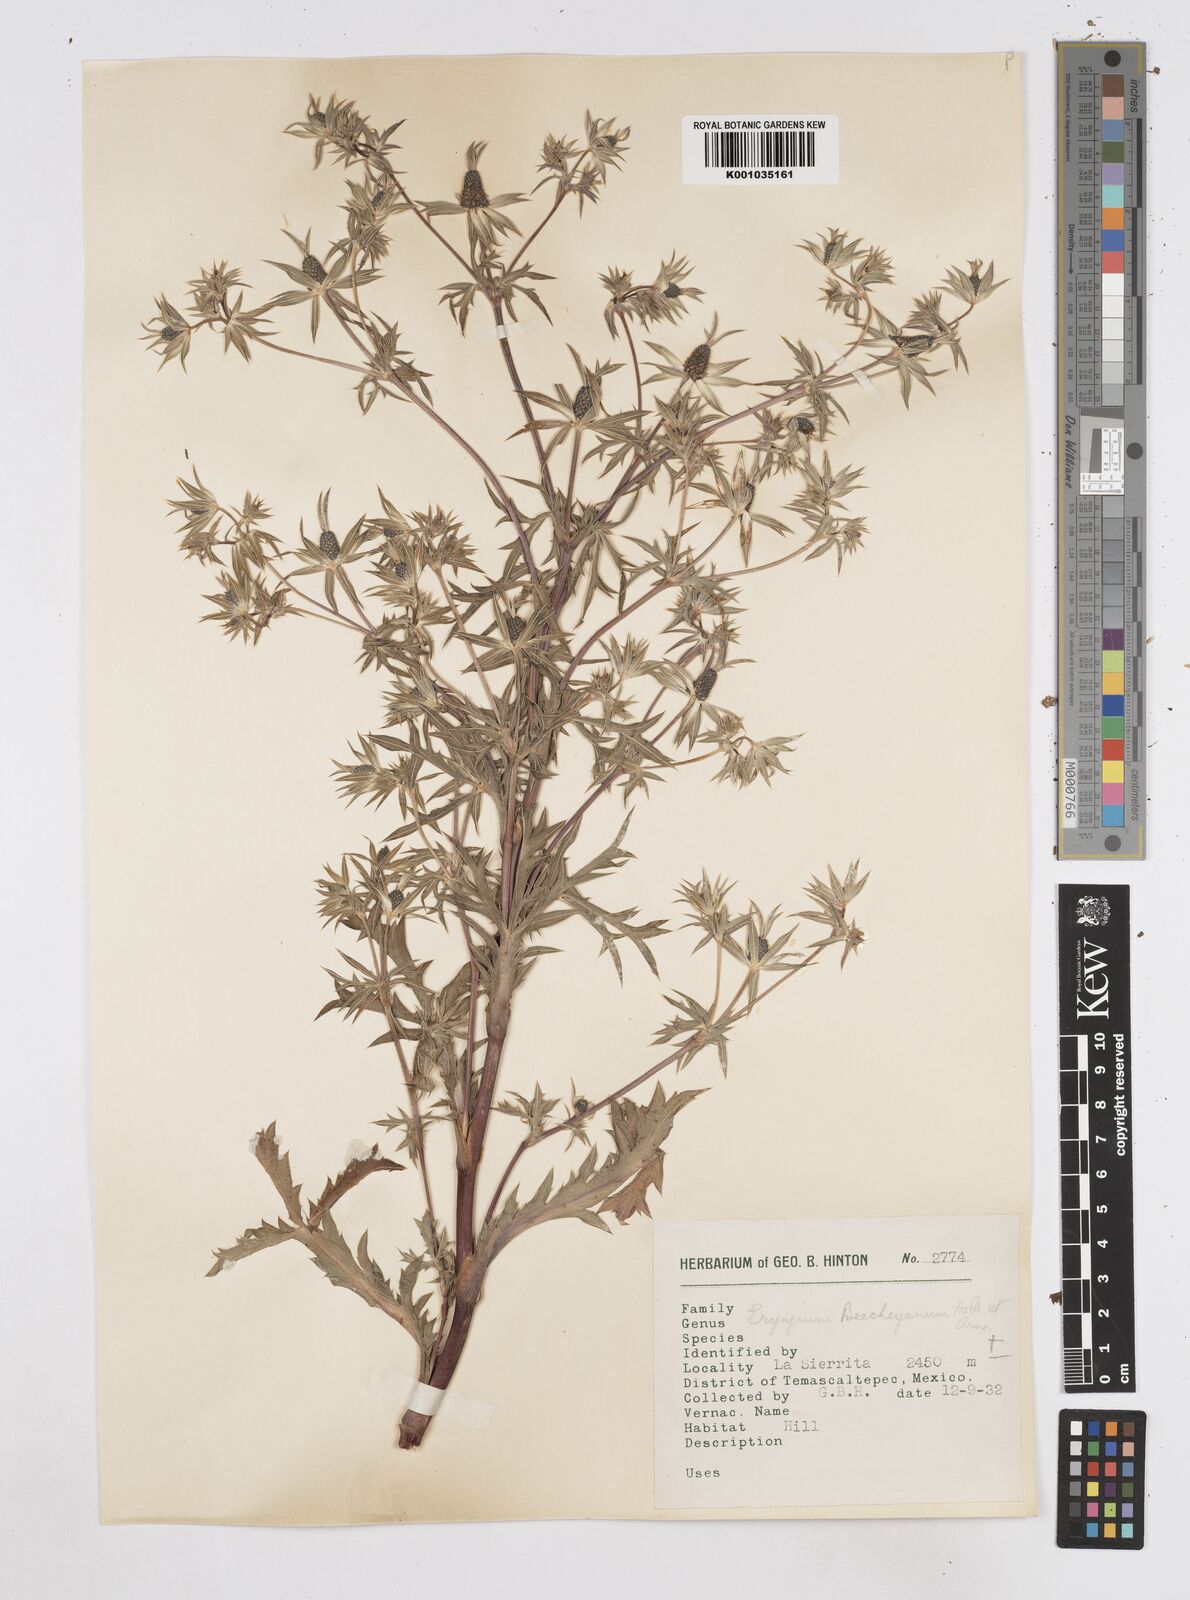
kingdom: Plantae
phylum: Tracheophyta
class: Magnoliopsida
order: Apiales
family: Apiaceae
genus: Eryngium
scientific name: Eryngium beecheyanum
